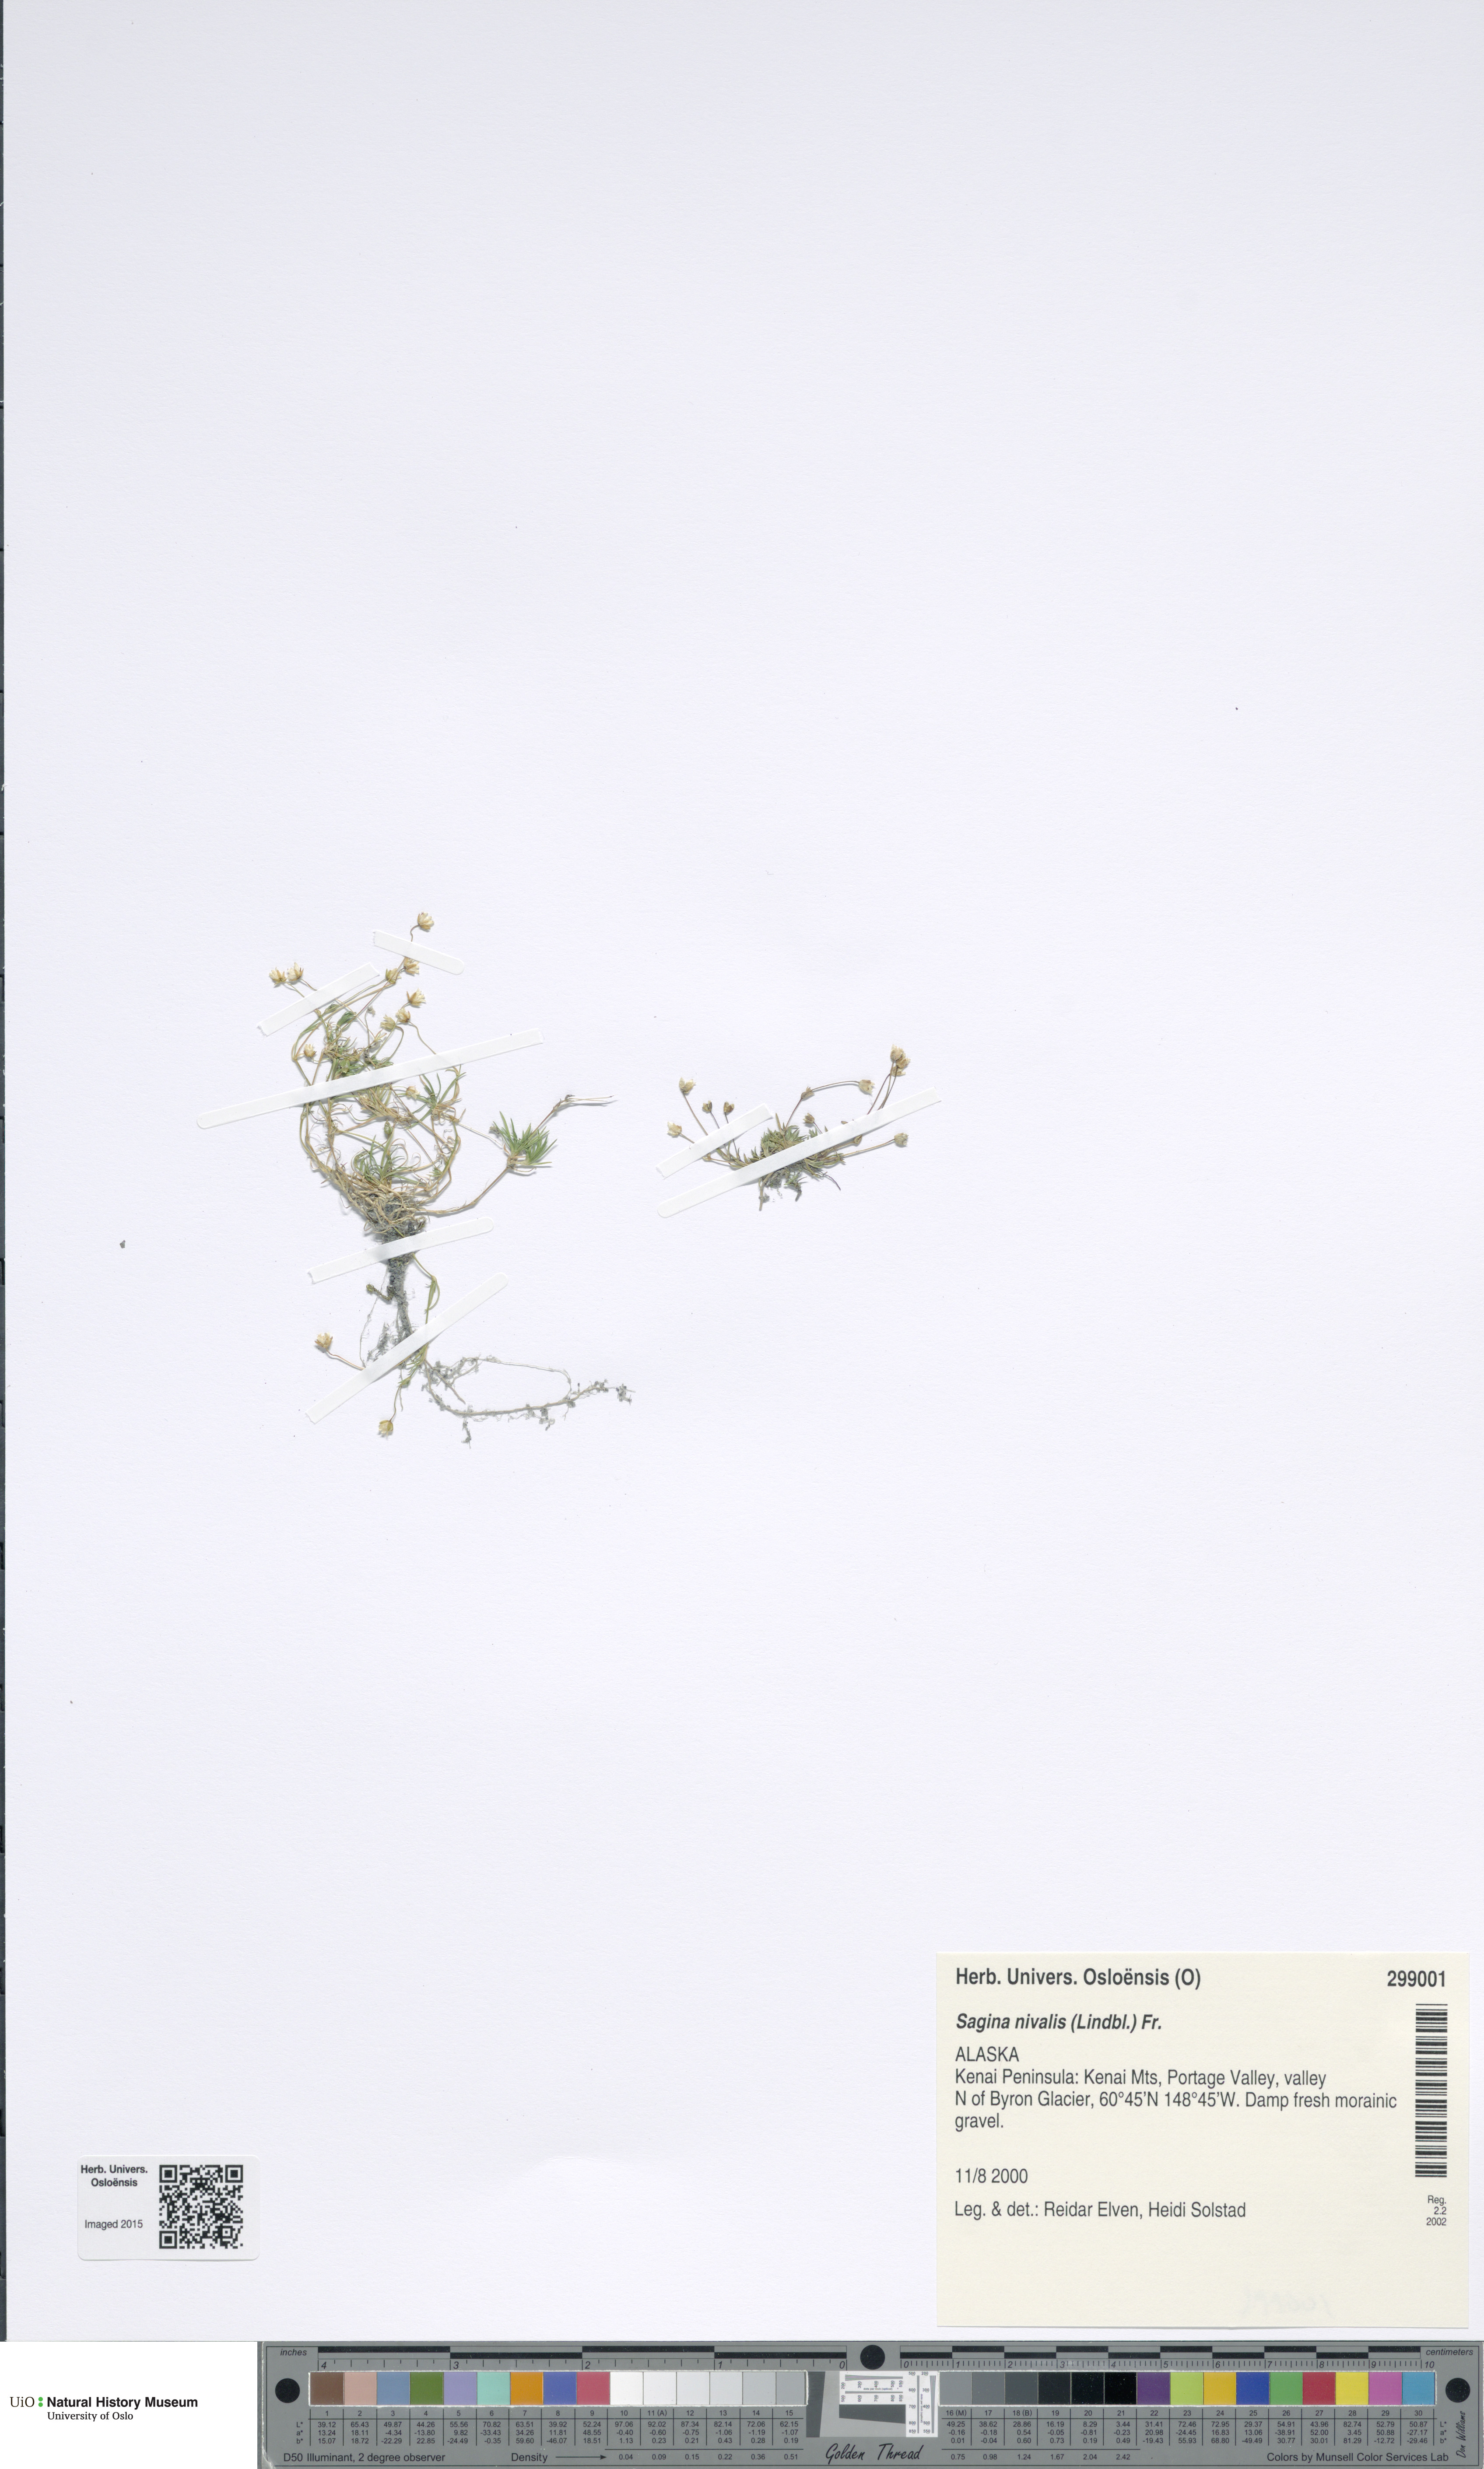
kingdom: Plantae
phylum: Tracheophyta
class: Magnoliopsida
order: Caryophyllales
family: Caryophyllaceae
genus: Sagina
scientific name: Sagina nivalis
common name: Snow pearlwort
